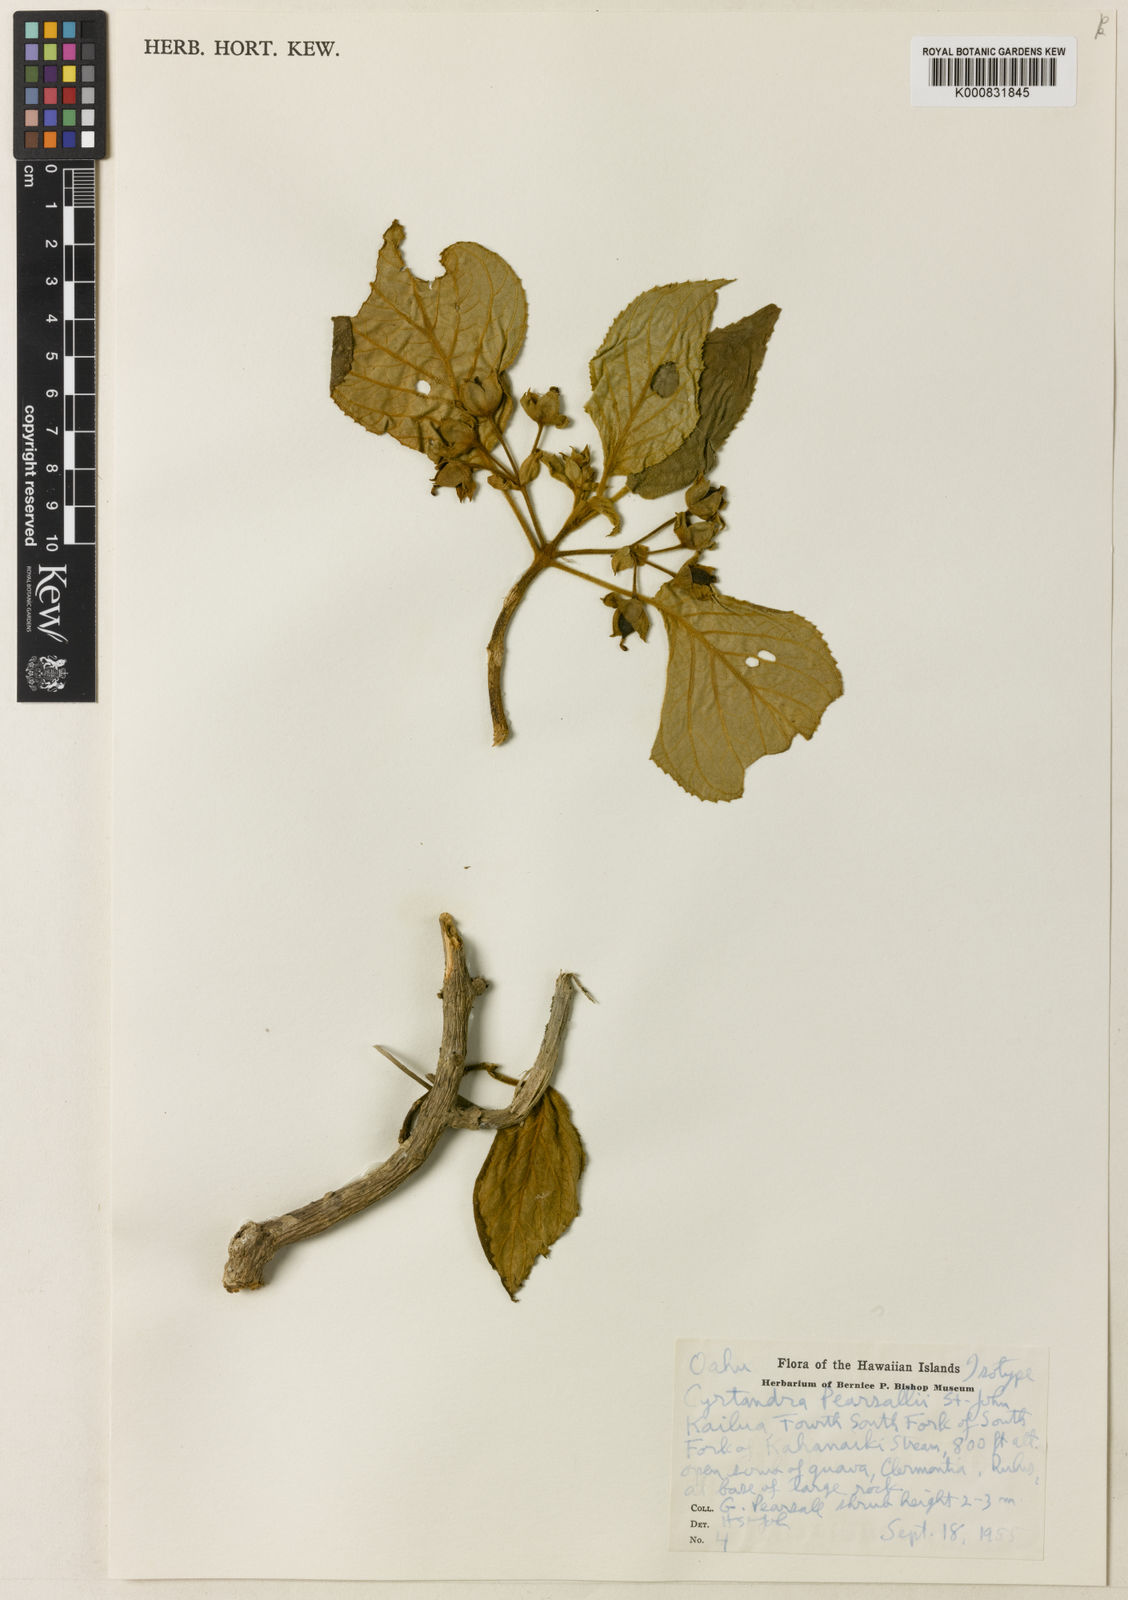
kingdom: Plantae
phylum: Tracheophyta
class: Magnoliopsida
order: Lamiales
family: Gesneriaceae
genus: Cyrtandra
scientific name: Cyrtandra kipapaensis
